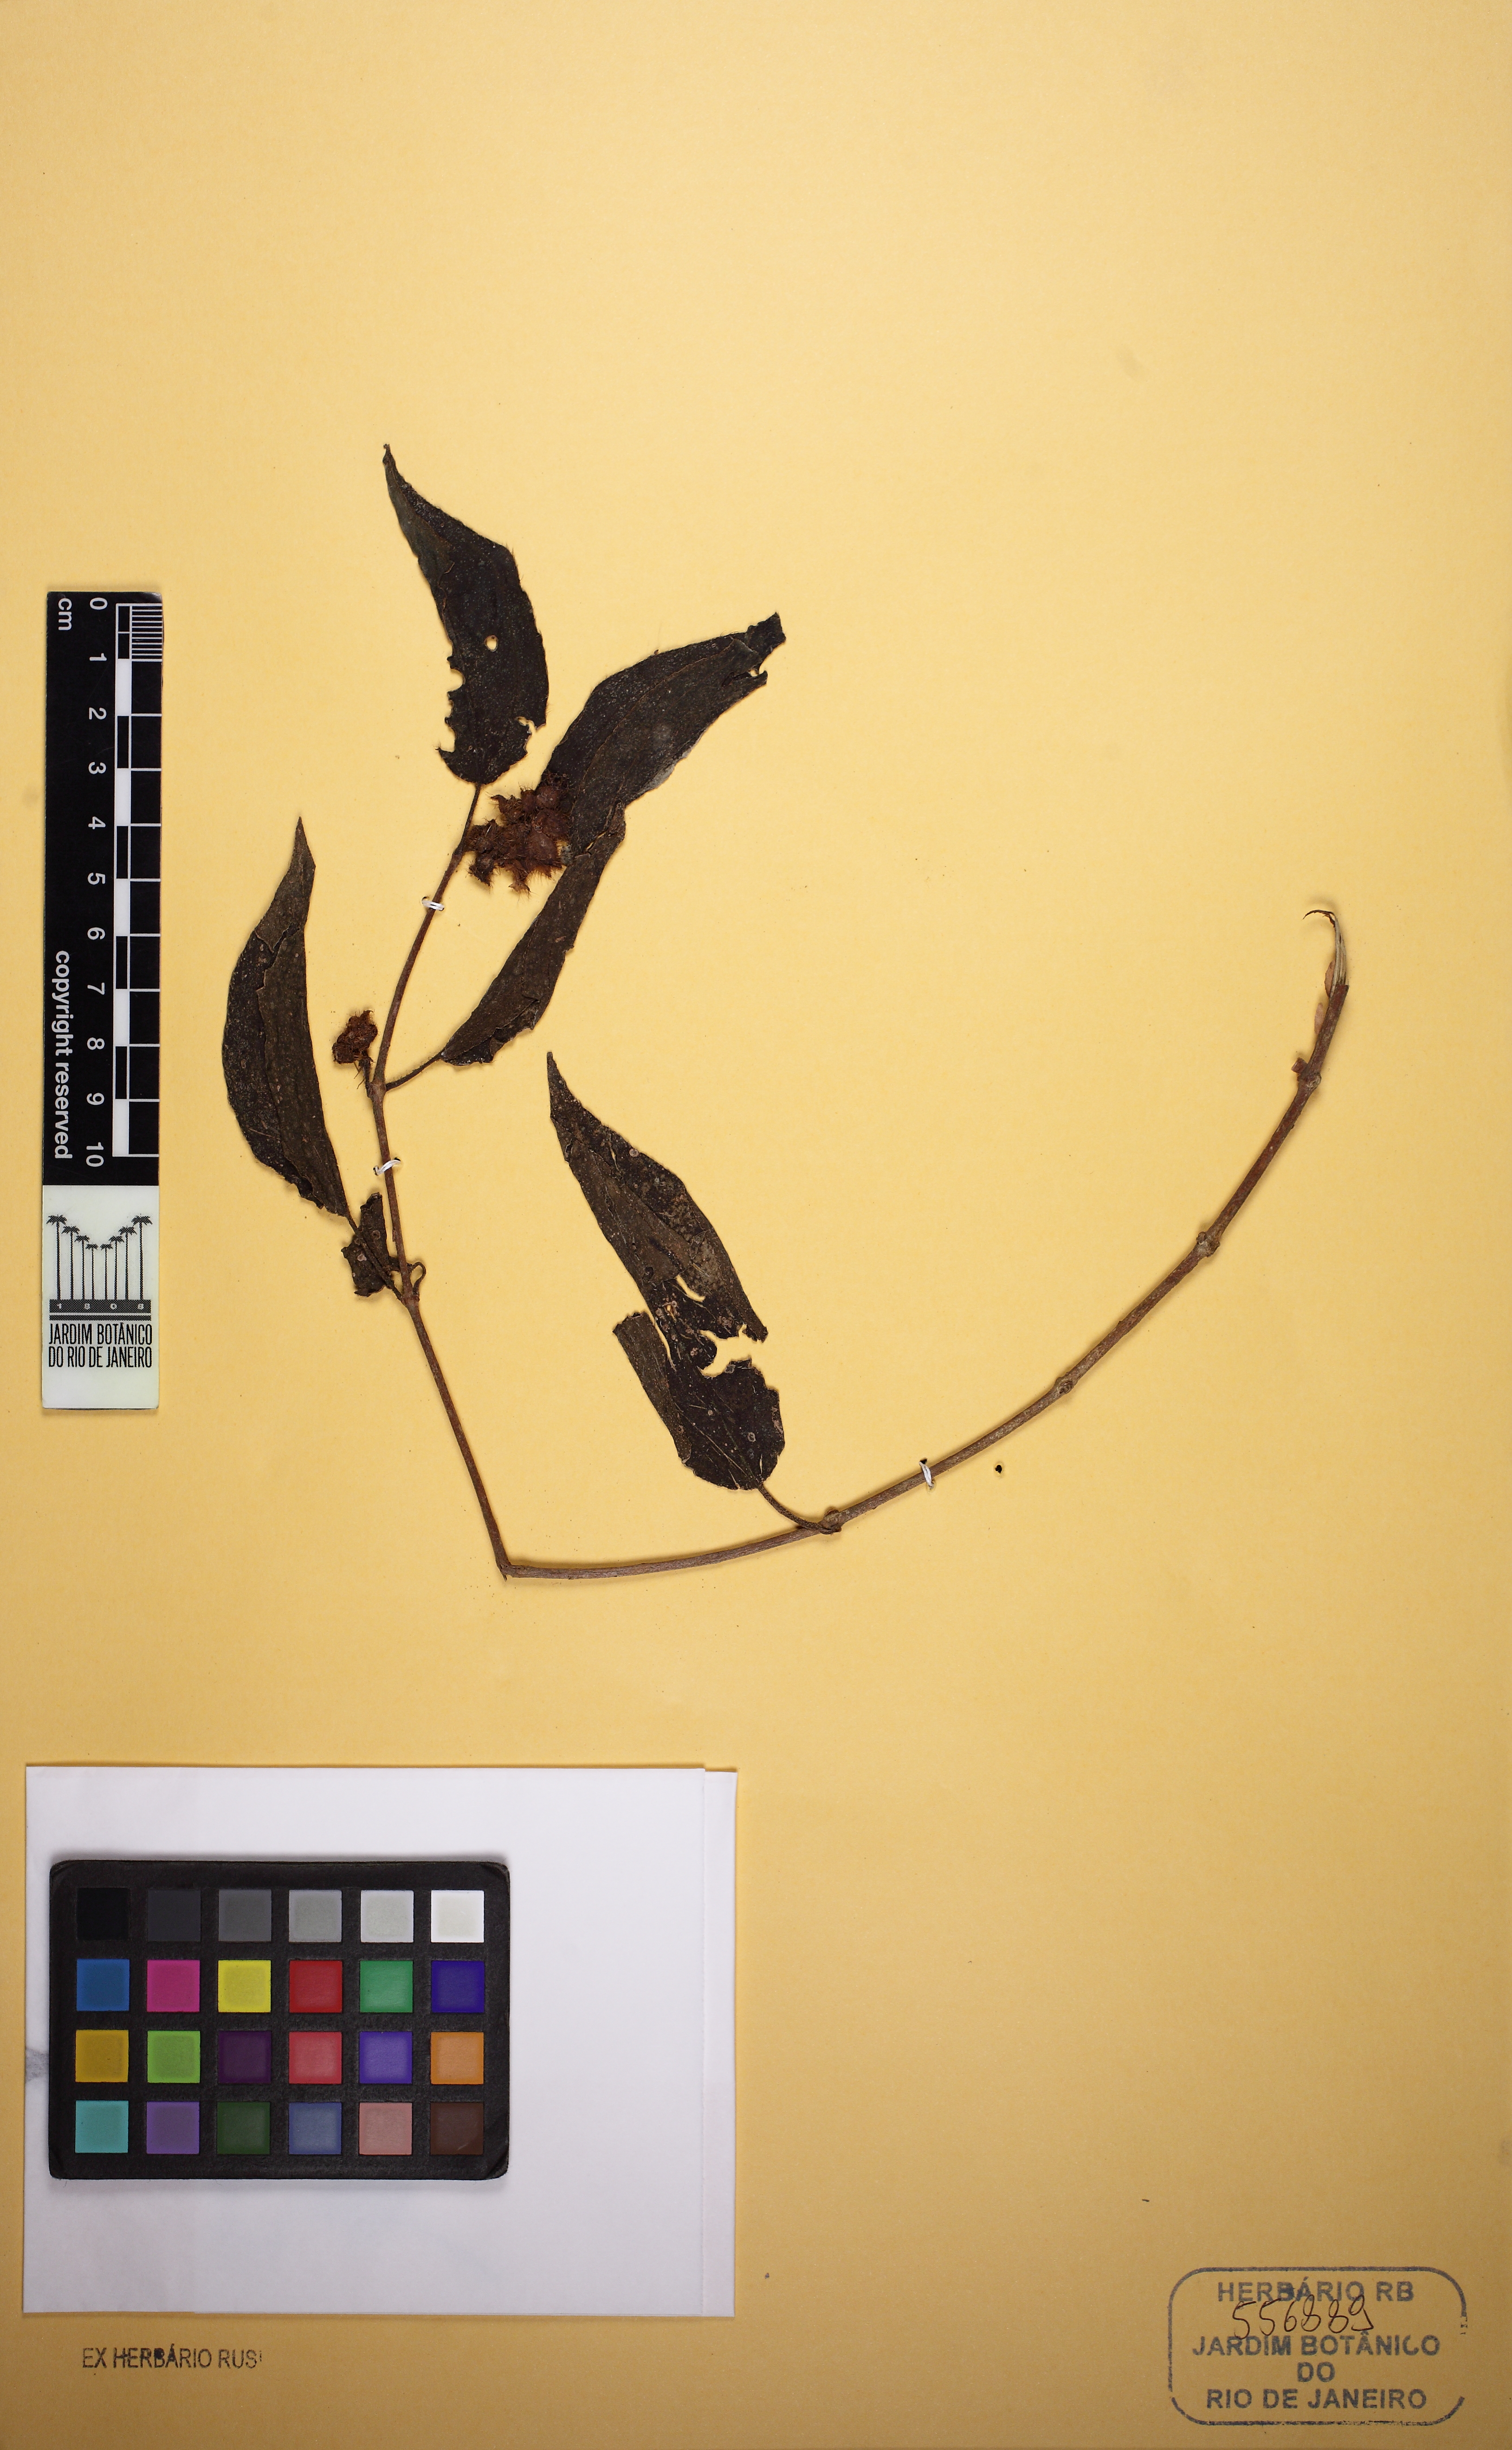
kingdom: Plantae
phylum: Tracheophyta
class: Magnoliopsida
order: Myrtales
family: Melastomataceae
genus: Miconia
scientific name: Miconia blepharodes
